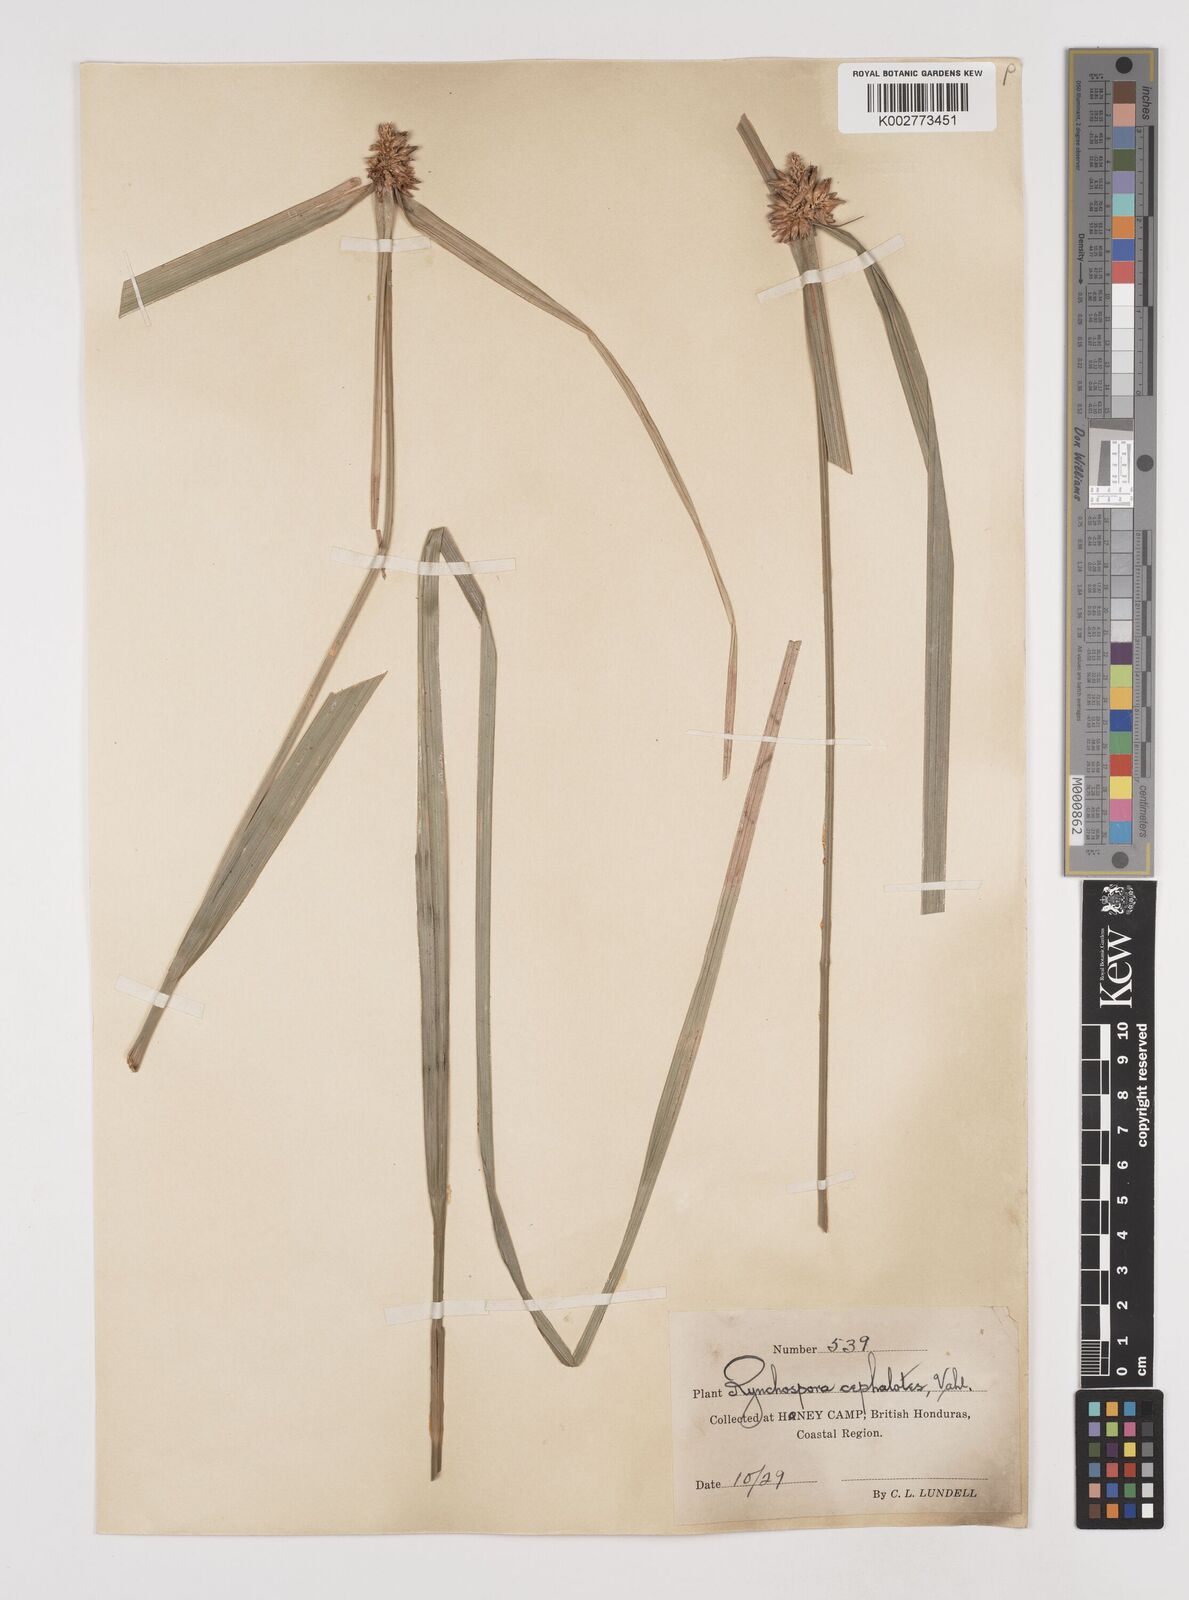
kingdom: Plantae
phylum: Tracheophyta
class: Liliopsida
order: Poales
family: Cyperaceae
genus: Rhynchospora
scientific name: Rhynchospora cephalotes
